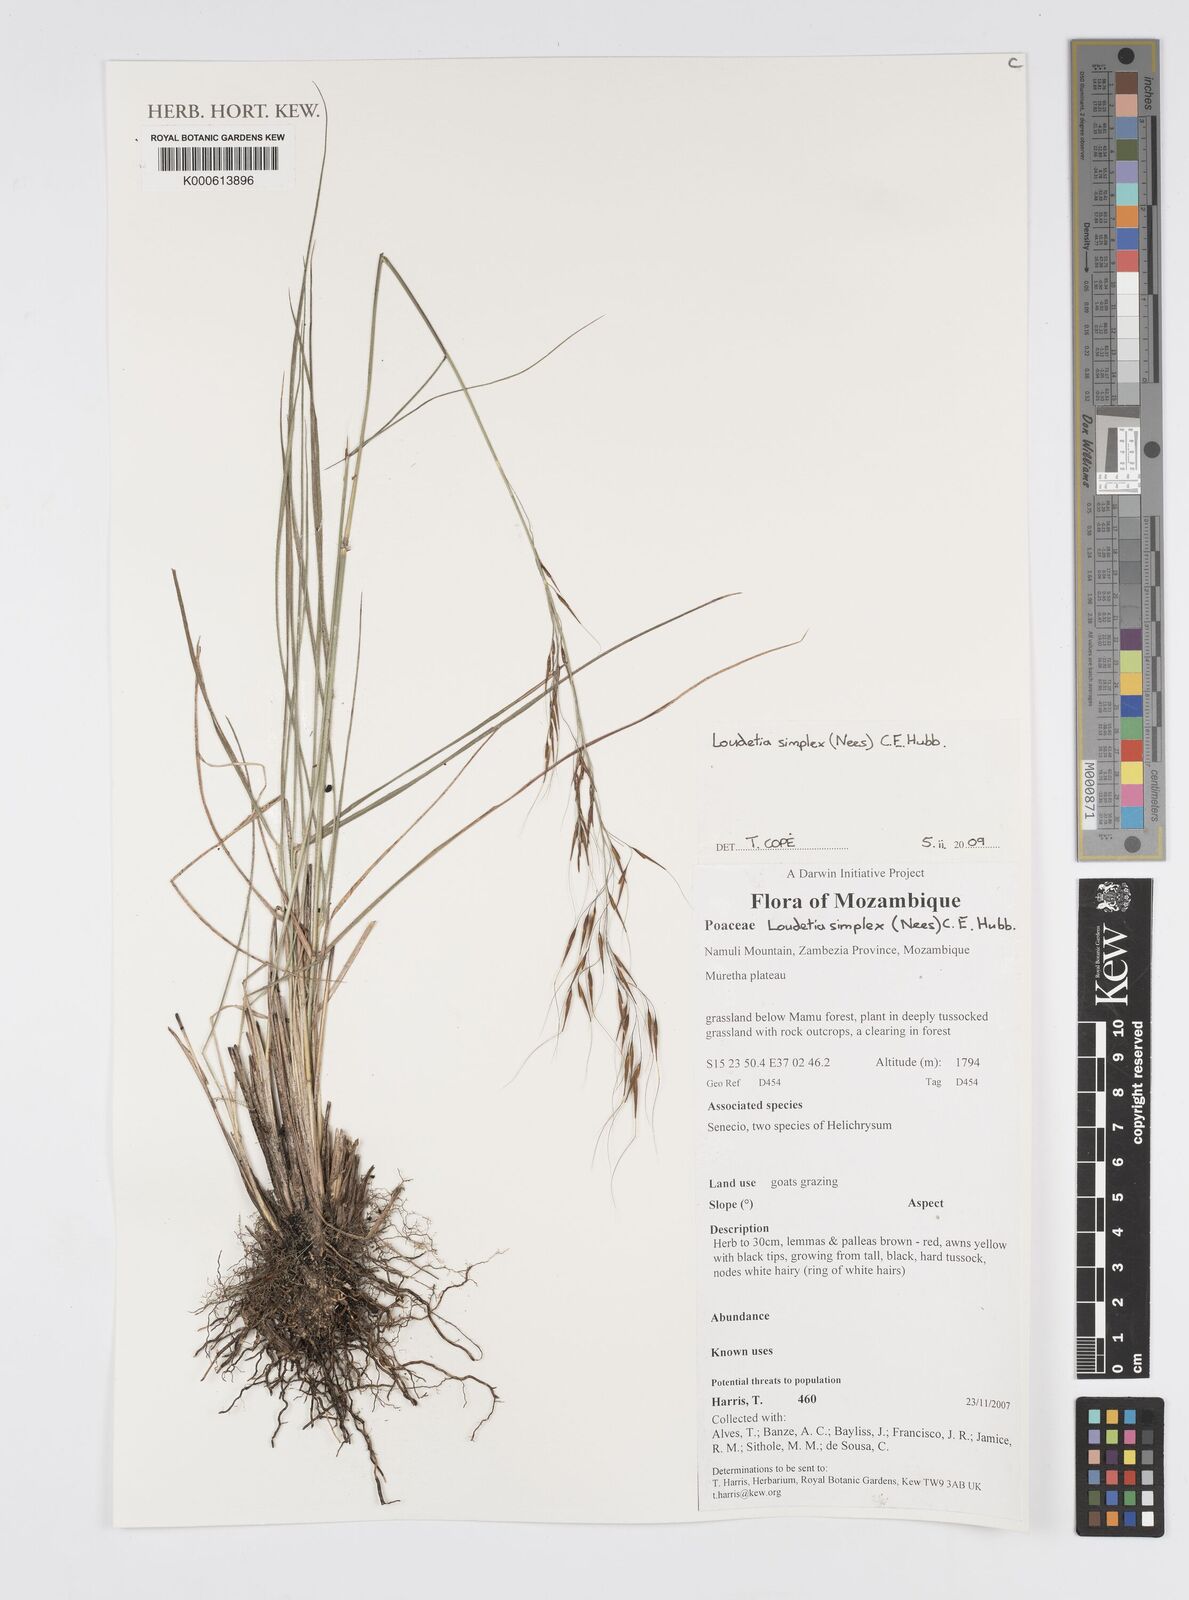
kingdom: Plantae
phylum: Tracheophyta
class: Liliopsida
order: Poales
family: Poaceae
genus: Loudetia
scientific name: Loudetia simplex
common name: Common russet grass
